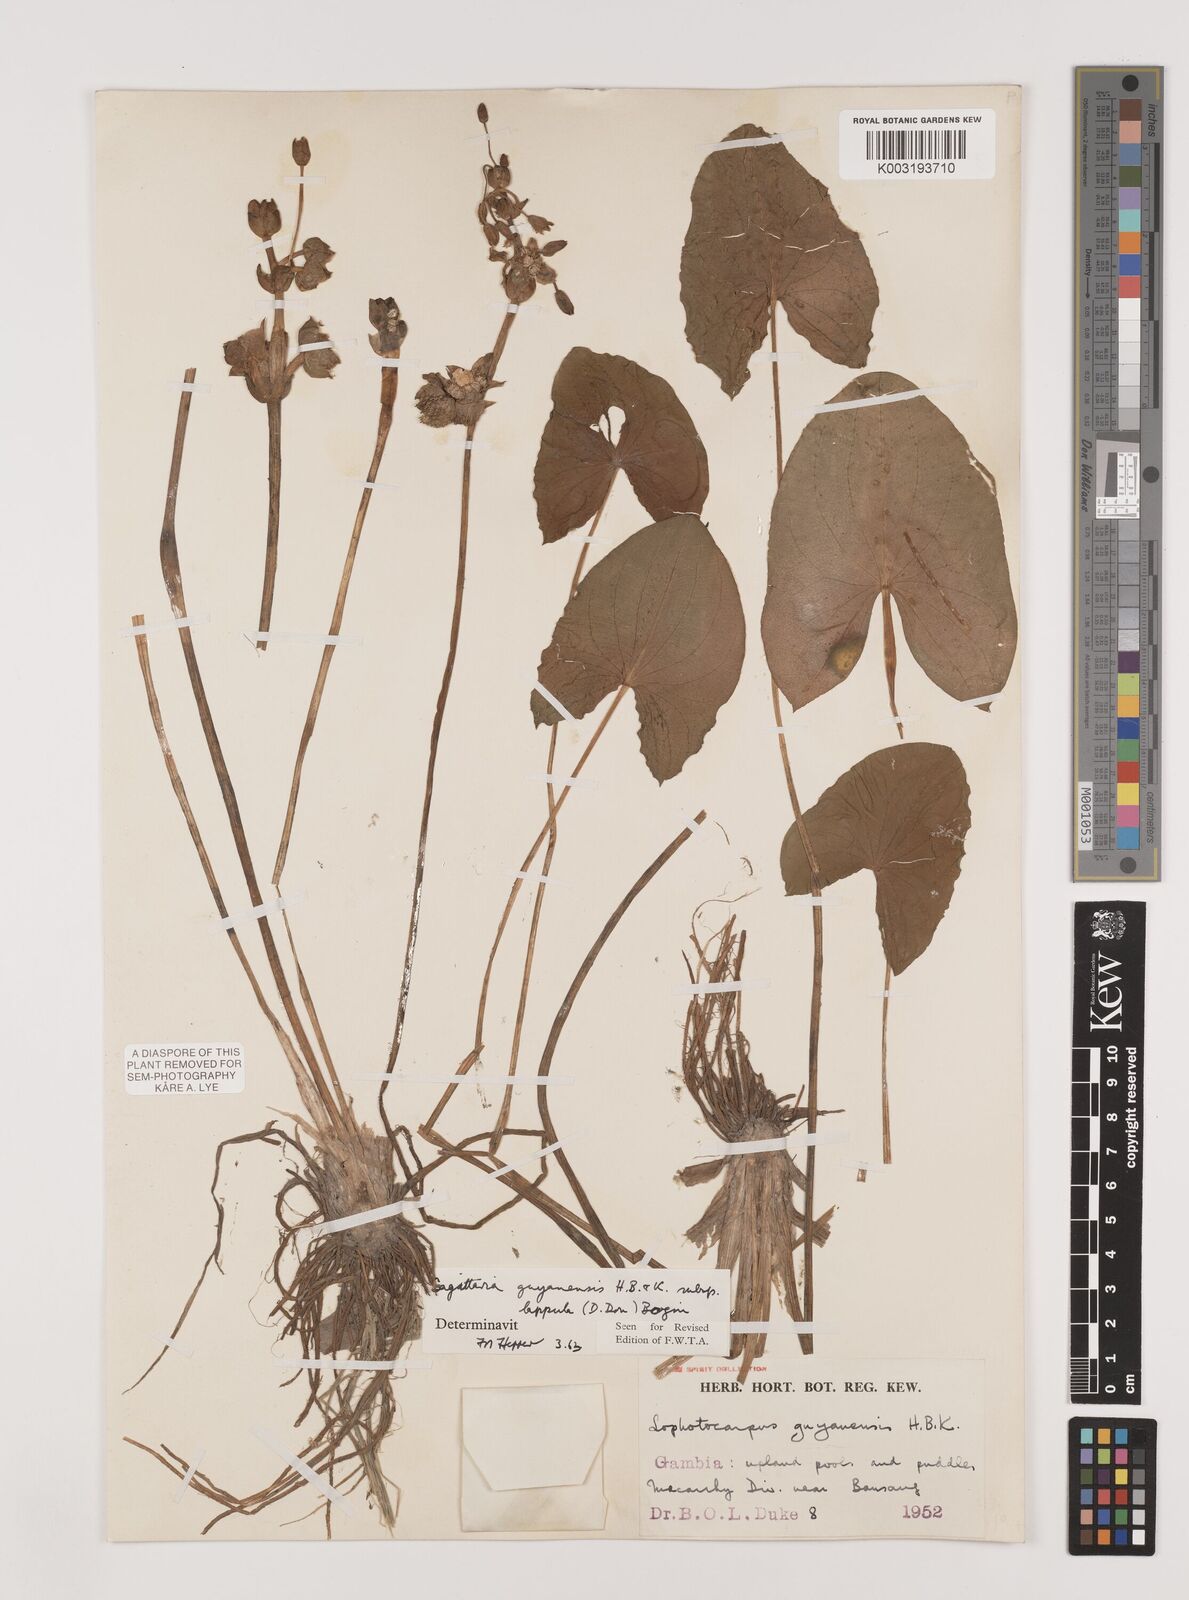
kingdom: Plantae
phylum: Tracheophyta
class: Liliopsida
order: Alismatales
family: Alismataceae
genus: Sagittaria
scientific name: Sagittaria guayanensis
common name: Guyanese arrowhead
